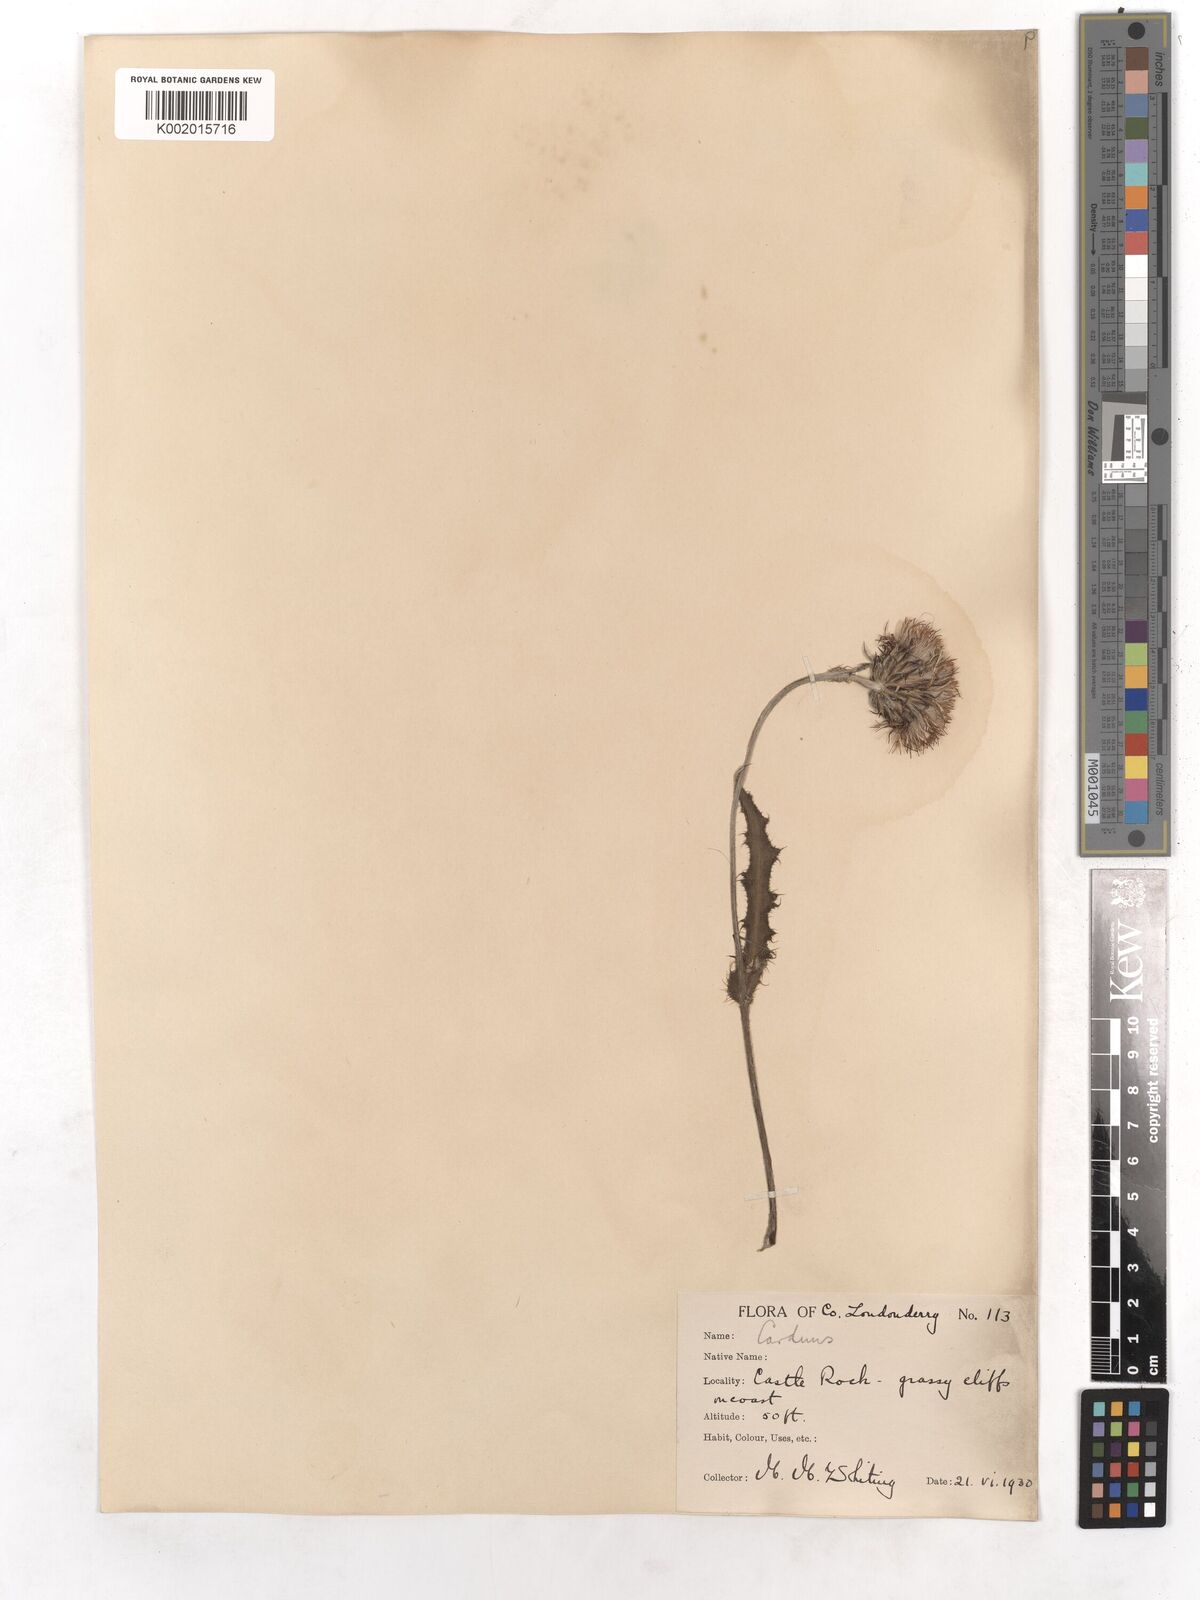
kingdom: Plantae
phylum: Tracheophyta
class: Magnoliopsida
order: Asterales
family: Asteraceae
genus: Cirsium
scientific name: Cirsium dissectum
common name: Meadow thistle
